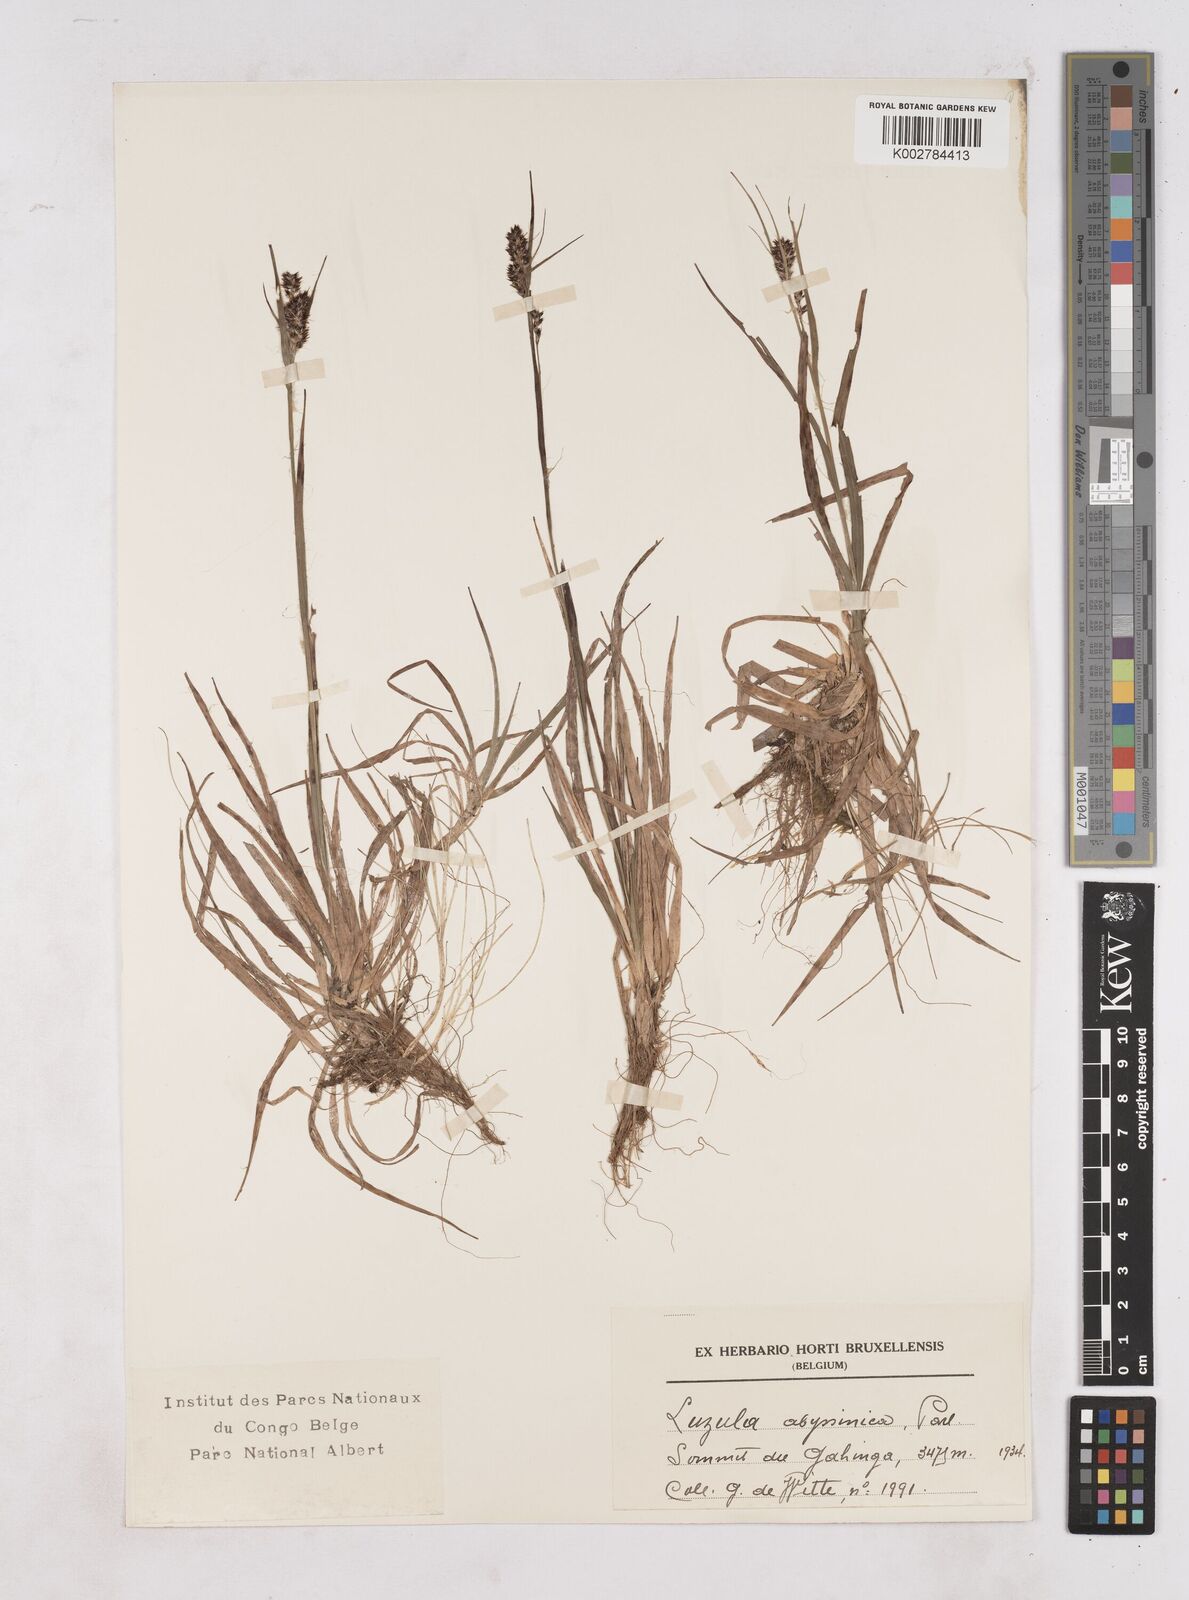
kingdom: Plantae
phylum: Tracheophyta
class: Liliopsida
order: Poales
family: Juncaceae
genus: Luzula
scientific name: Luzula abyssinica
